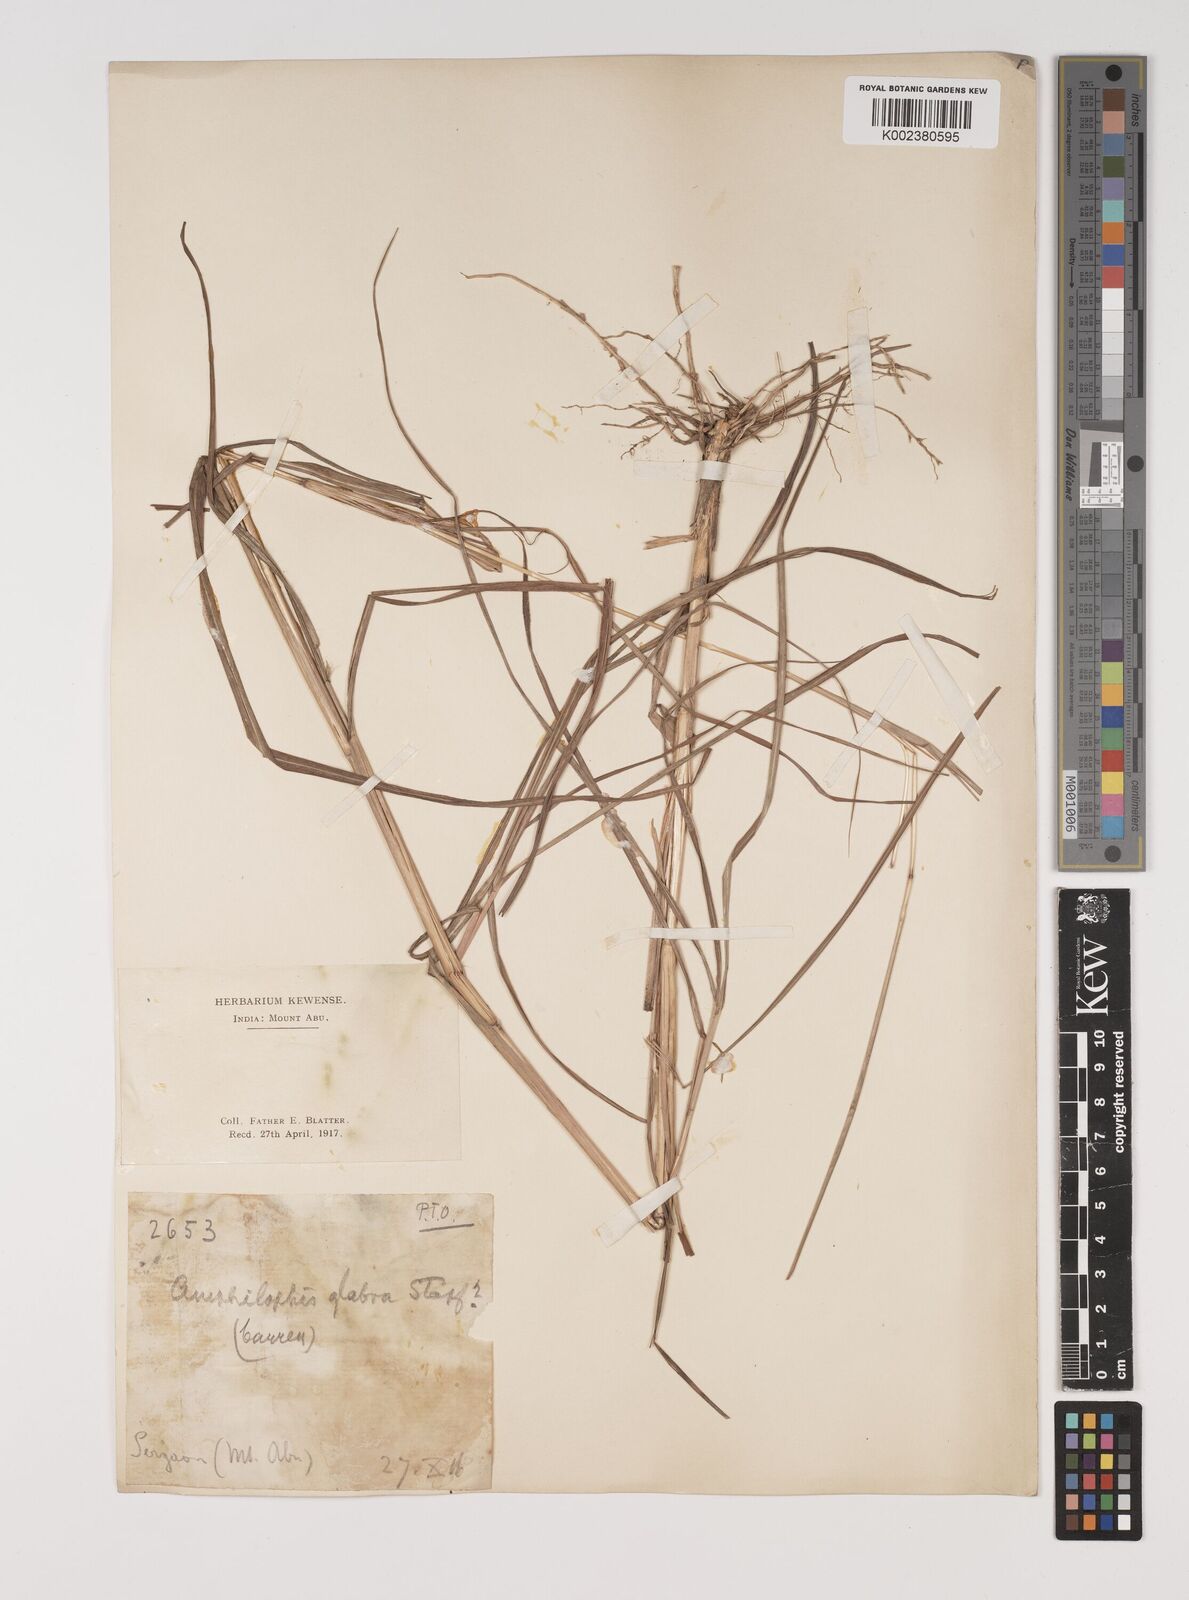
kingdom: Plantae
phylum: Tracheophyta
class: Liliopsida
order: Poales
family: Poaceae
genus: Bothriochloa
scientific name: Bothriochloa bladhii
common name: Caucasian bluestem
